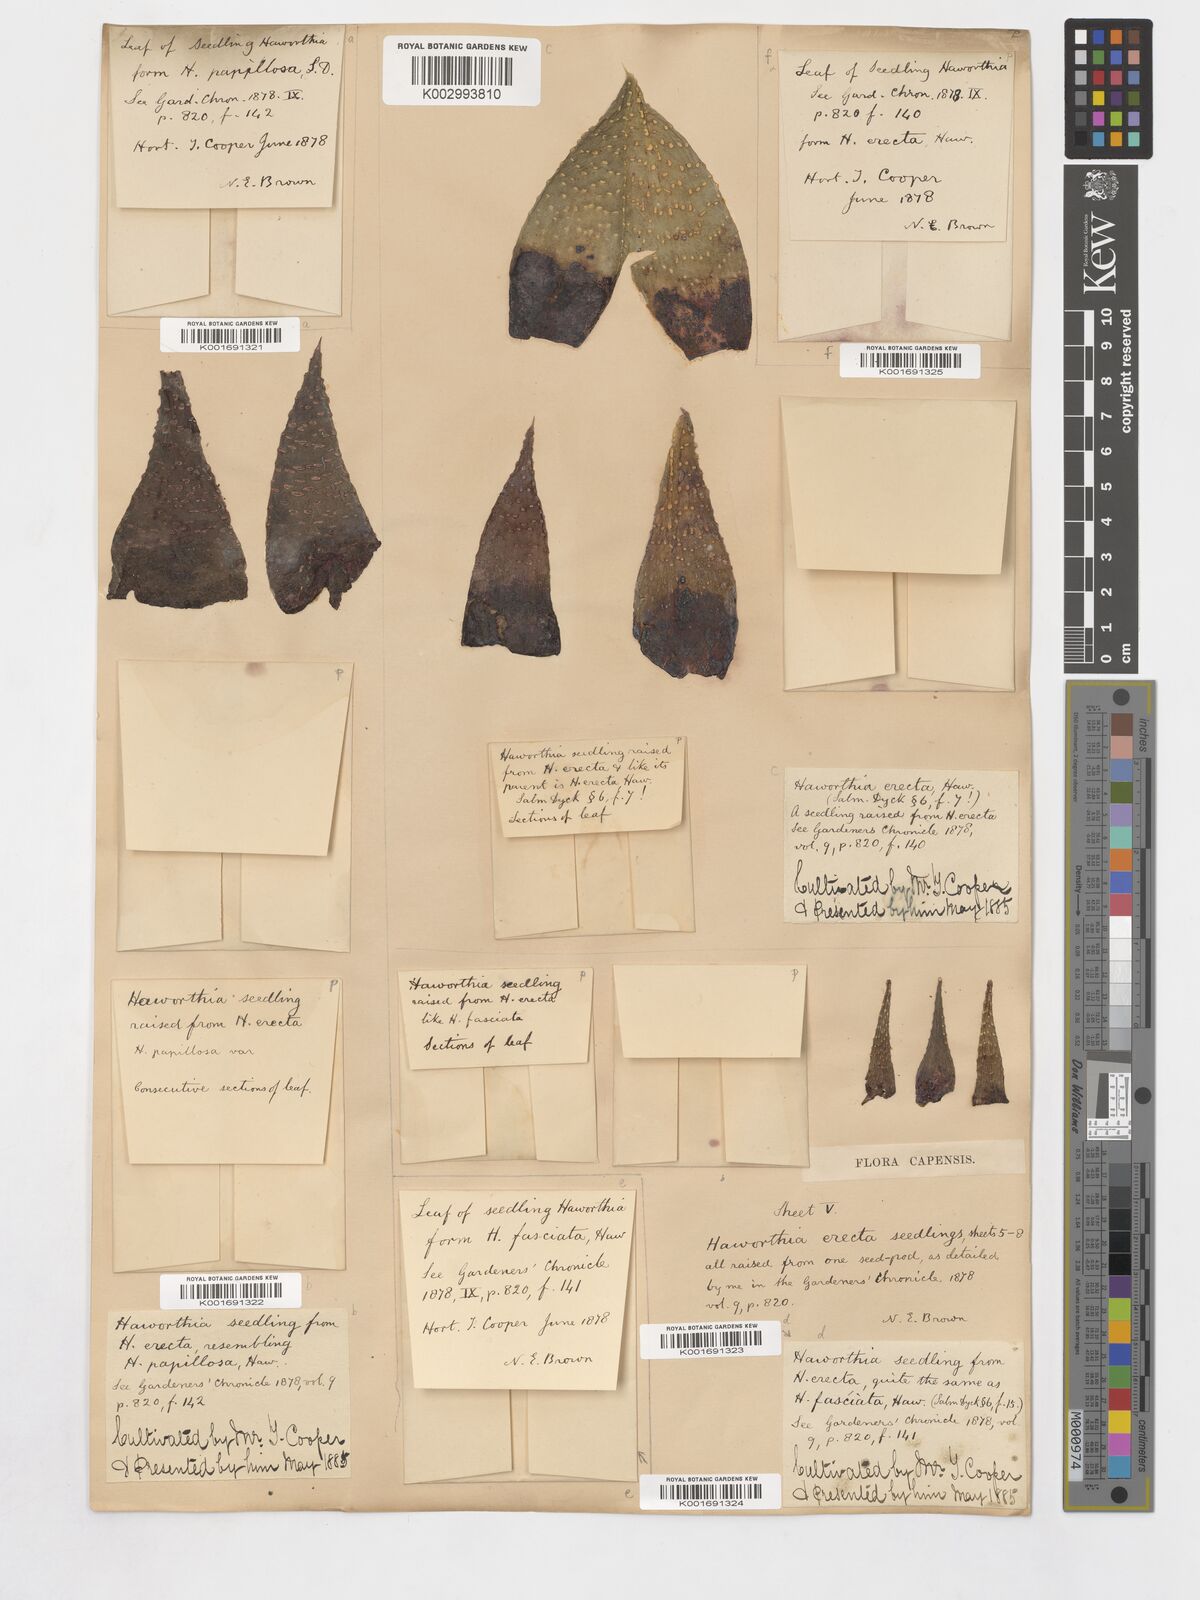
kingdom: Plantae
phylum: Tracheophyta
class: Liliopsida
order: Asparagales
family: Asphodelaceae
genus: Tulista
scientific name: Tulista minor
